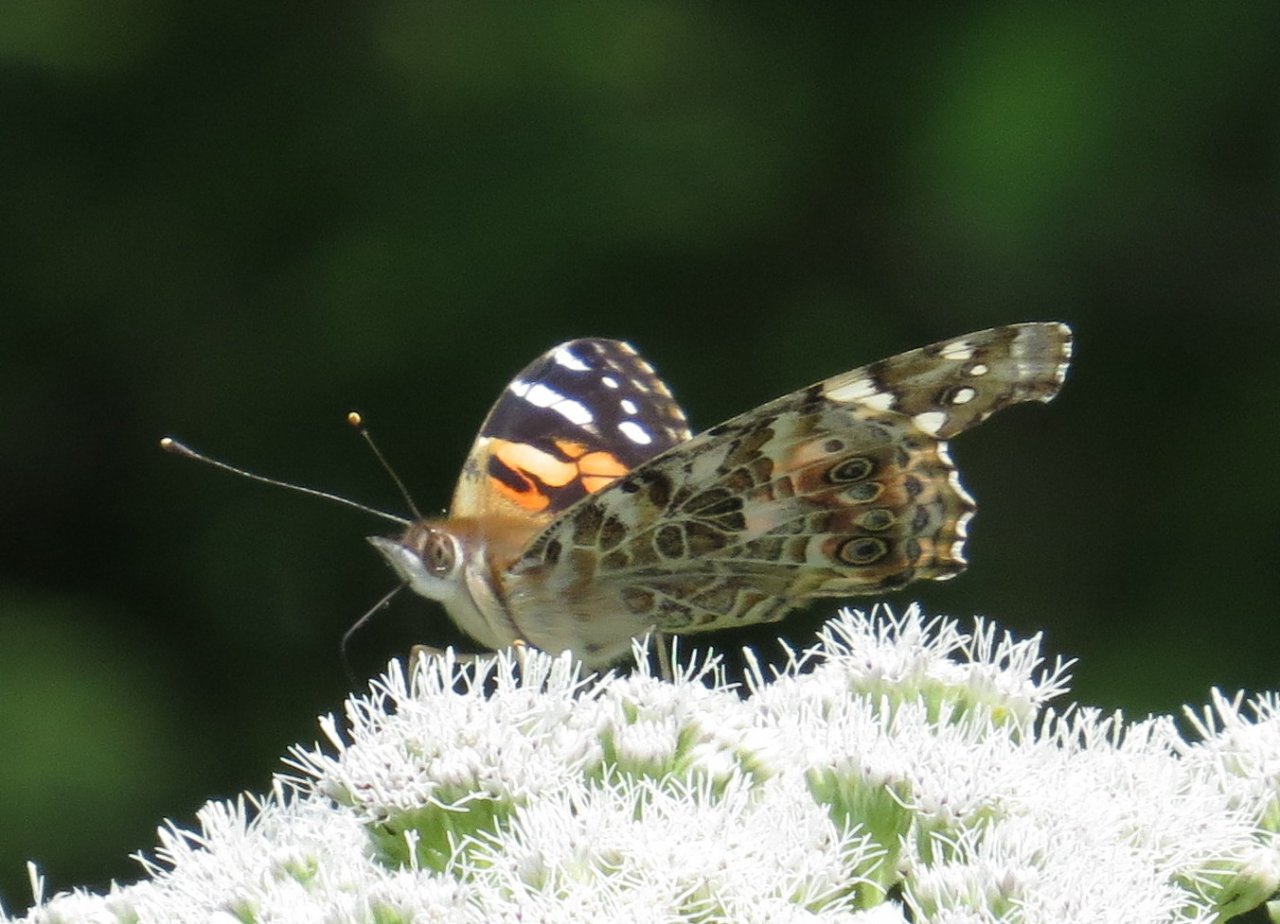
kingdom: Animalia
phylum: Arthropoda
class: Insecta
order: Lepidoptera
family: Nymphalidae
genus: Vanessa
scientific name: Vanessa cardui
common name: Painted Lady
